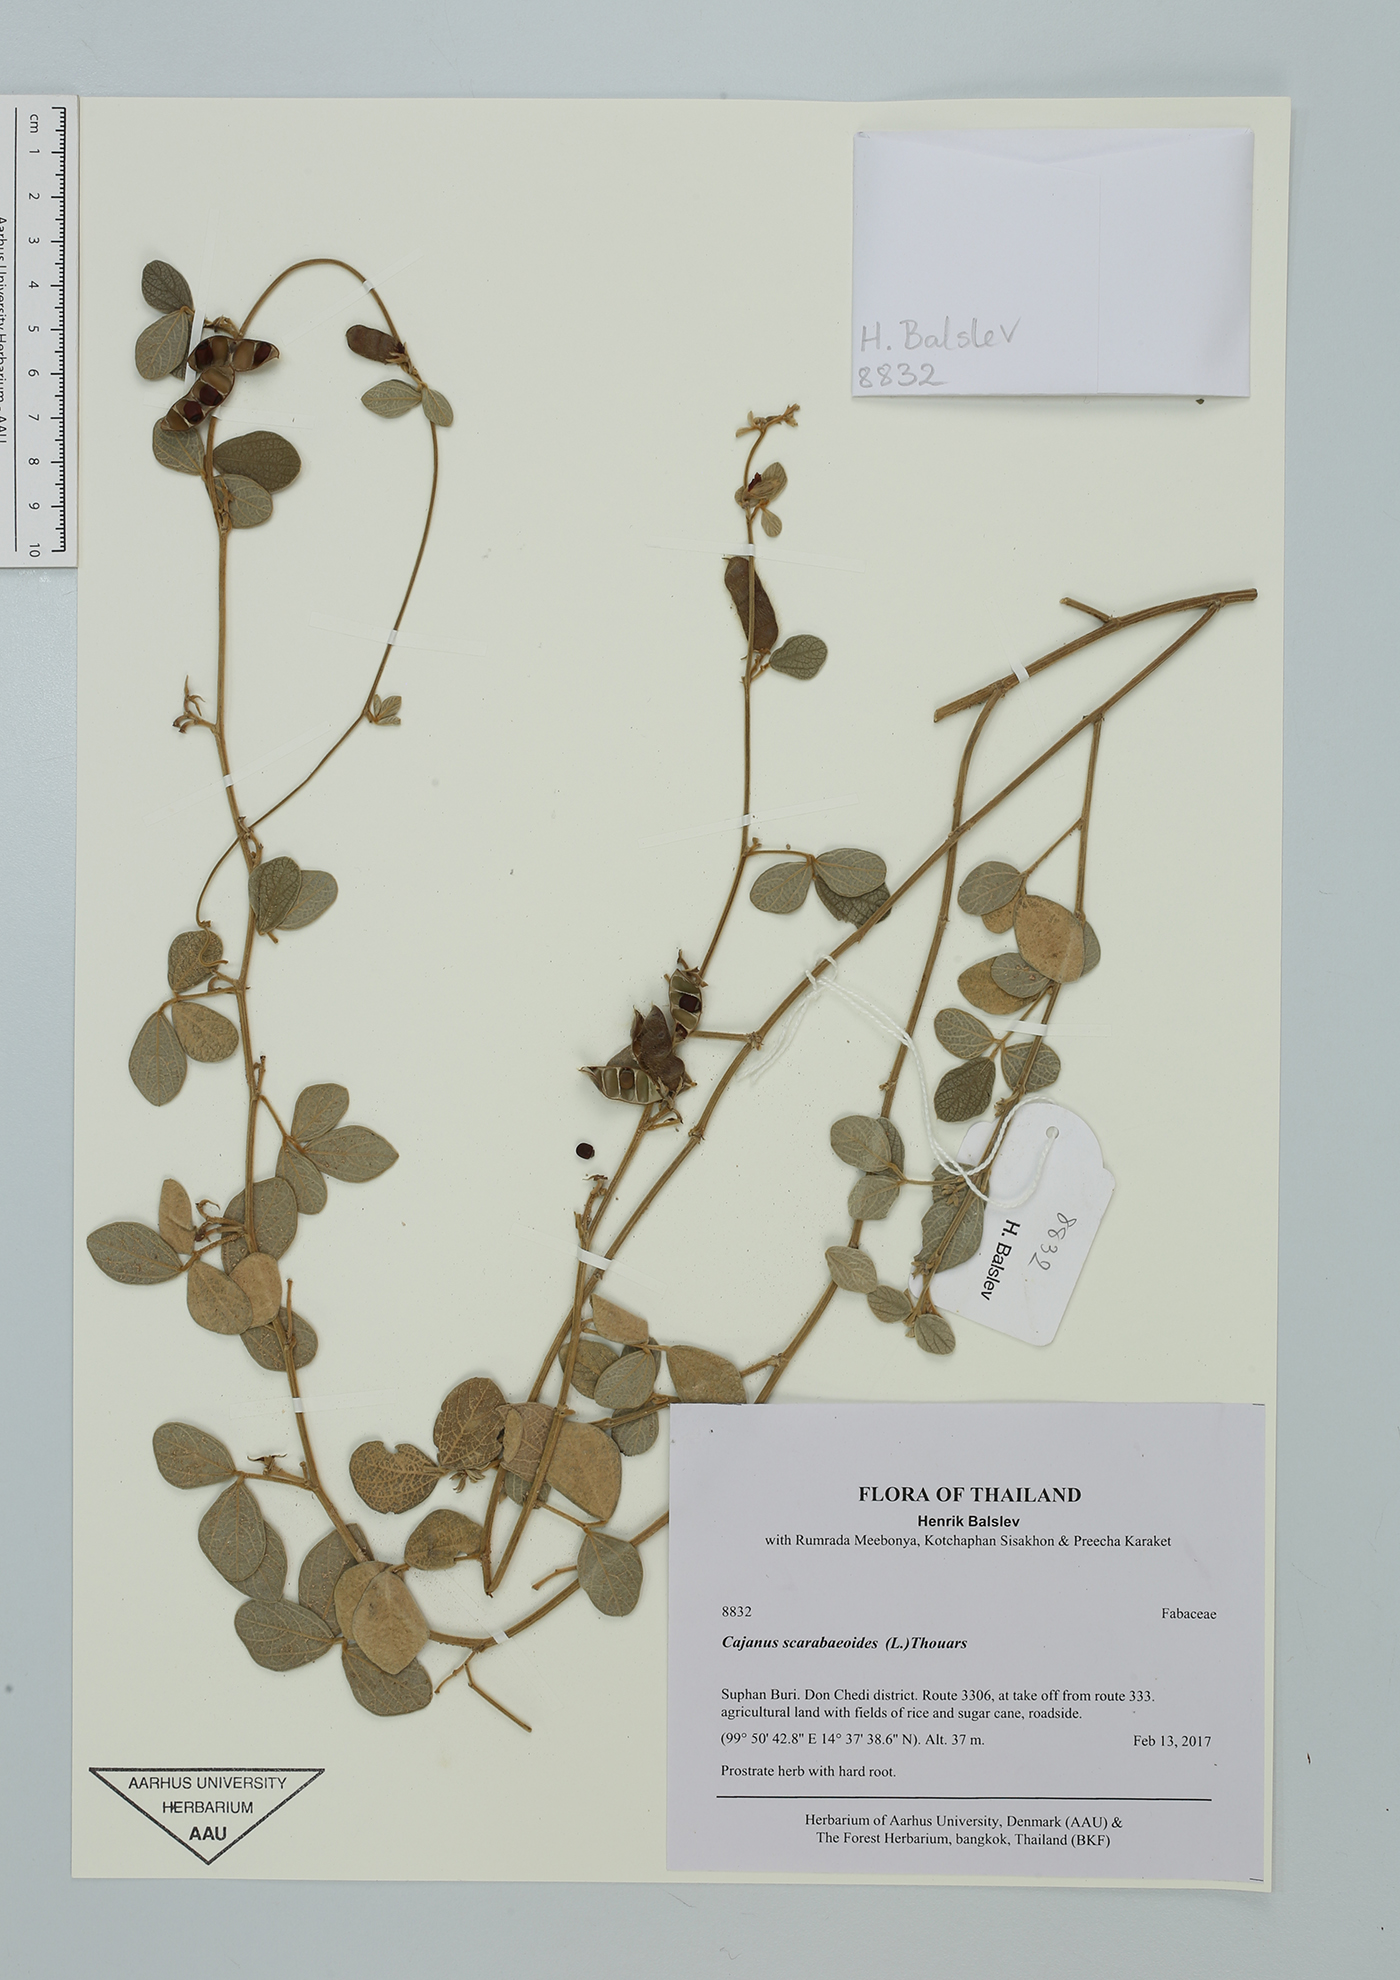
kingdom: Plantae
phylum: Tracheophyta
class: Magnoliopsida
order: Fabales
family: Fabaceae
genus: Cajanus
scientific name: Cajanus scarabaeoides
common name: Showy pigeonpea
